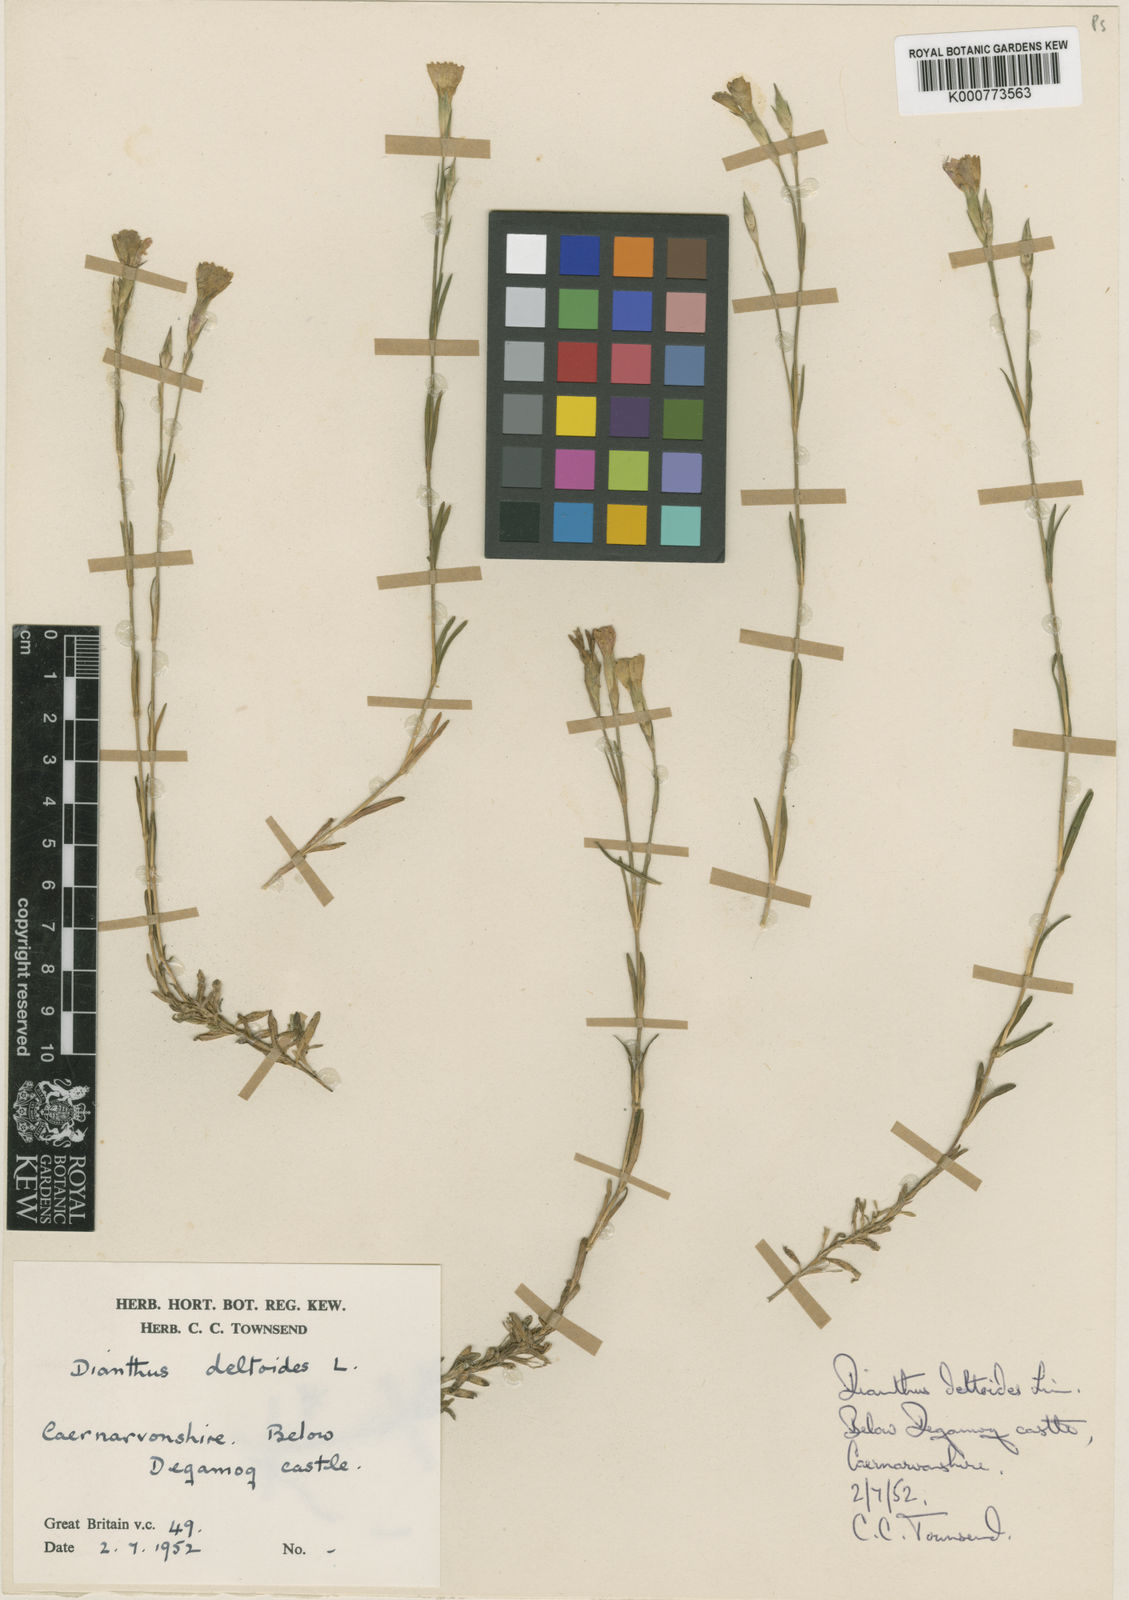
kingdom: Plantae
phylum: Tracheophyta
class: Magnoliopsida
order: Caryophyllales
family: Caryophyllaceae
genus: Dianthus
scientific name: Dianthus deltoides
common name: Maiden pink
